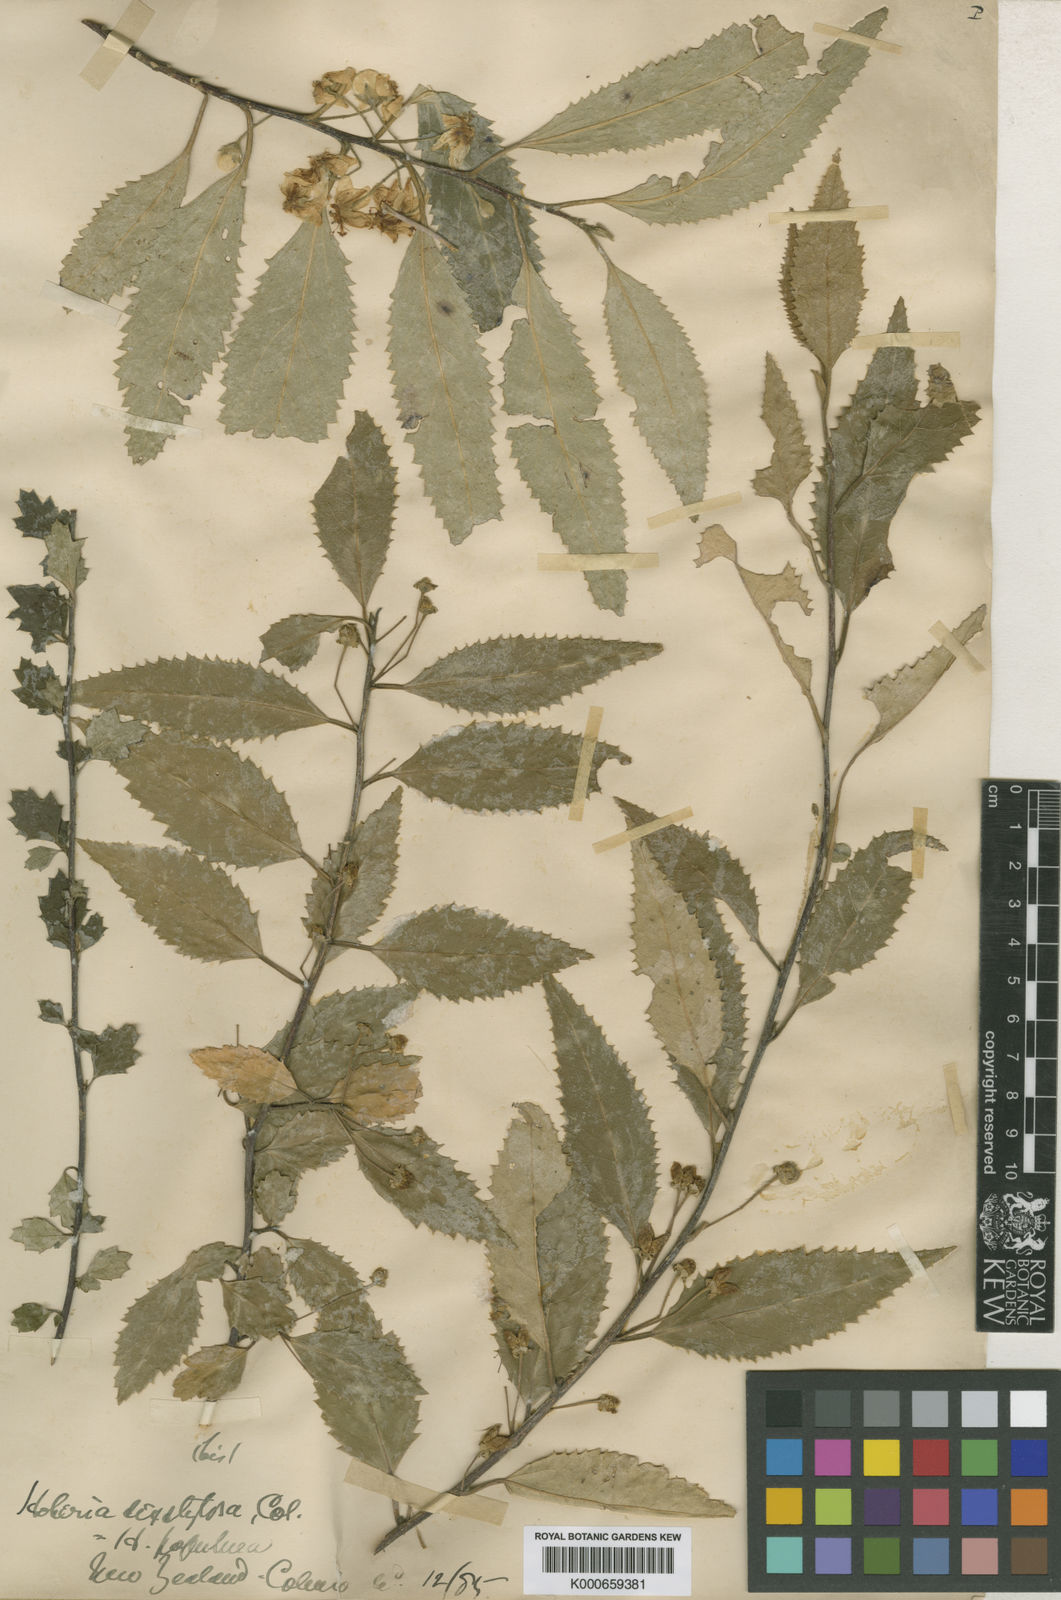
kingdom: Plantae
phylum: Tracheophyta
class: Magnoliopsida
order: Malvales
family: Malvaceae
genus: Hoheria
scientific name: Hoheria sexstylosa
